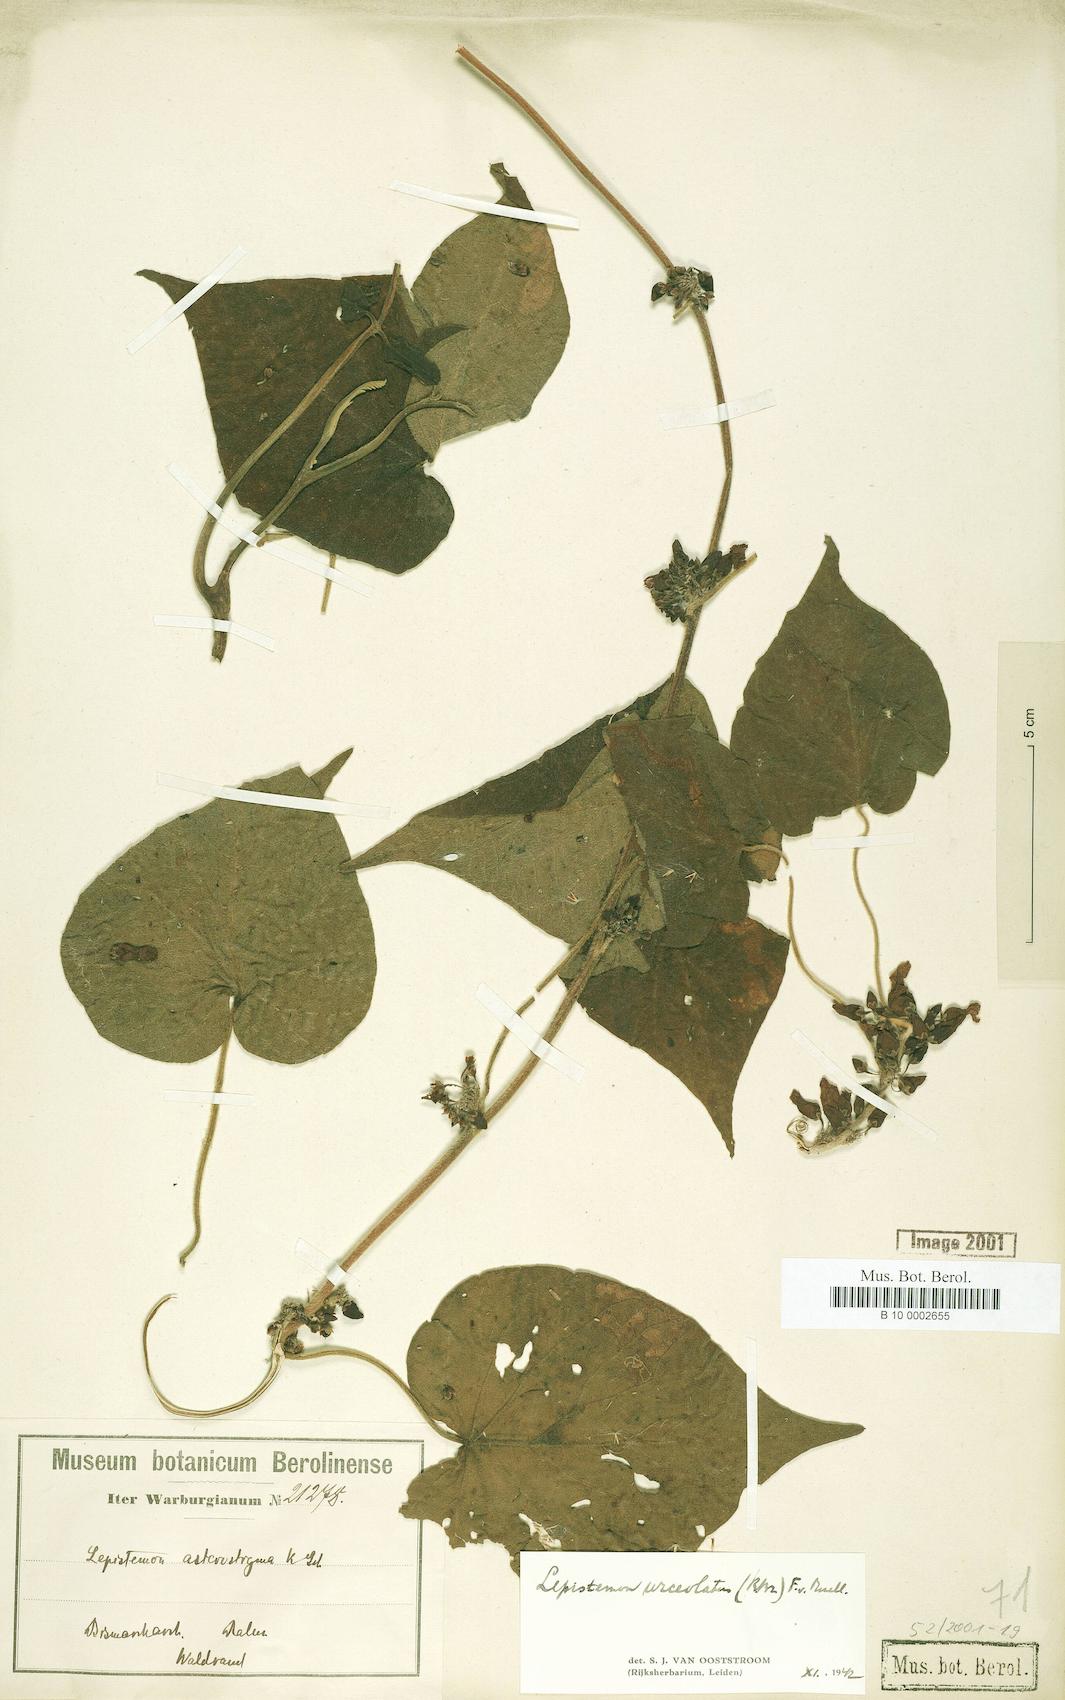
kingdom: Plantae
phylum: Tracheophyta
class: Magnoliopsida
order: Solanales
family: Convolvulaceae
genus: Lepistemon
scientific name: Lepistemon urceolatus
